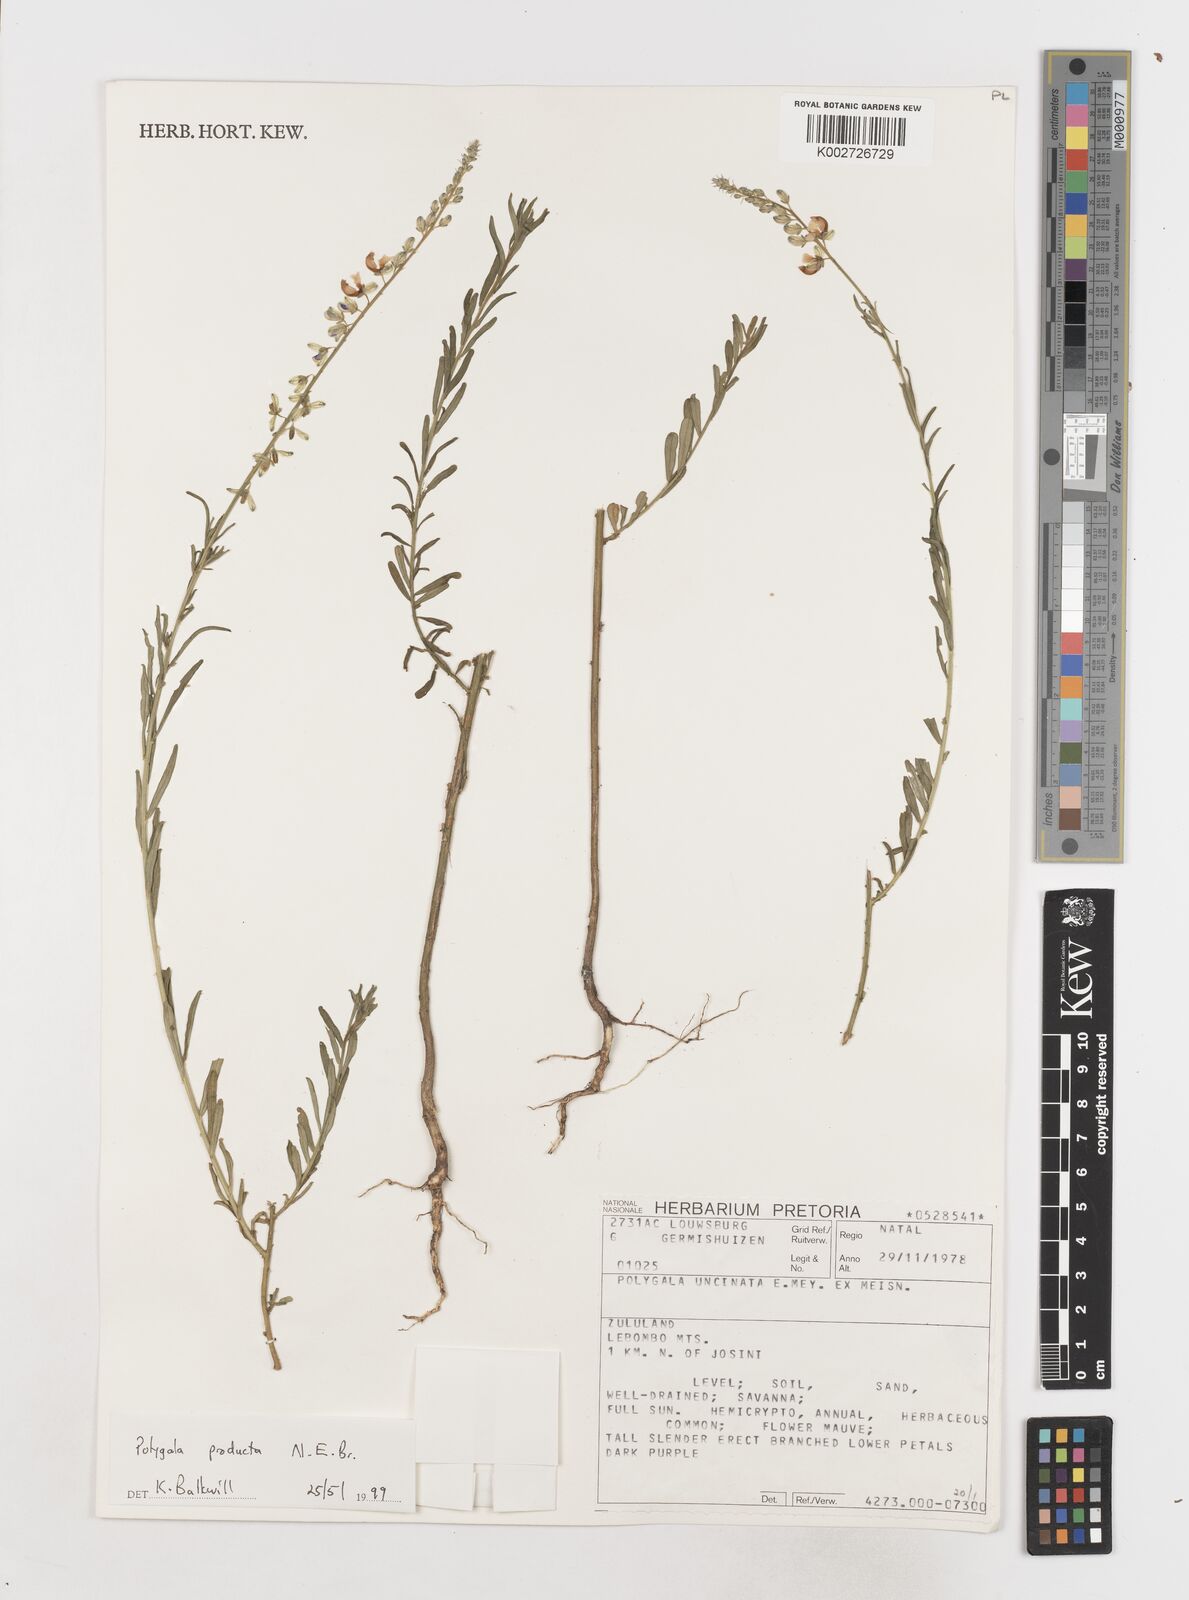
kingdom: Plantae
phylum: Tracheophyta
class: Magnoliopsida
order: Fabales
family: Polygalaceae
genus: Polygala
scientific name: Polygala producta
